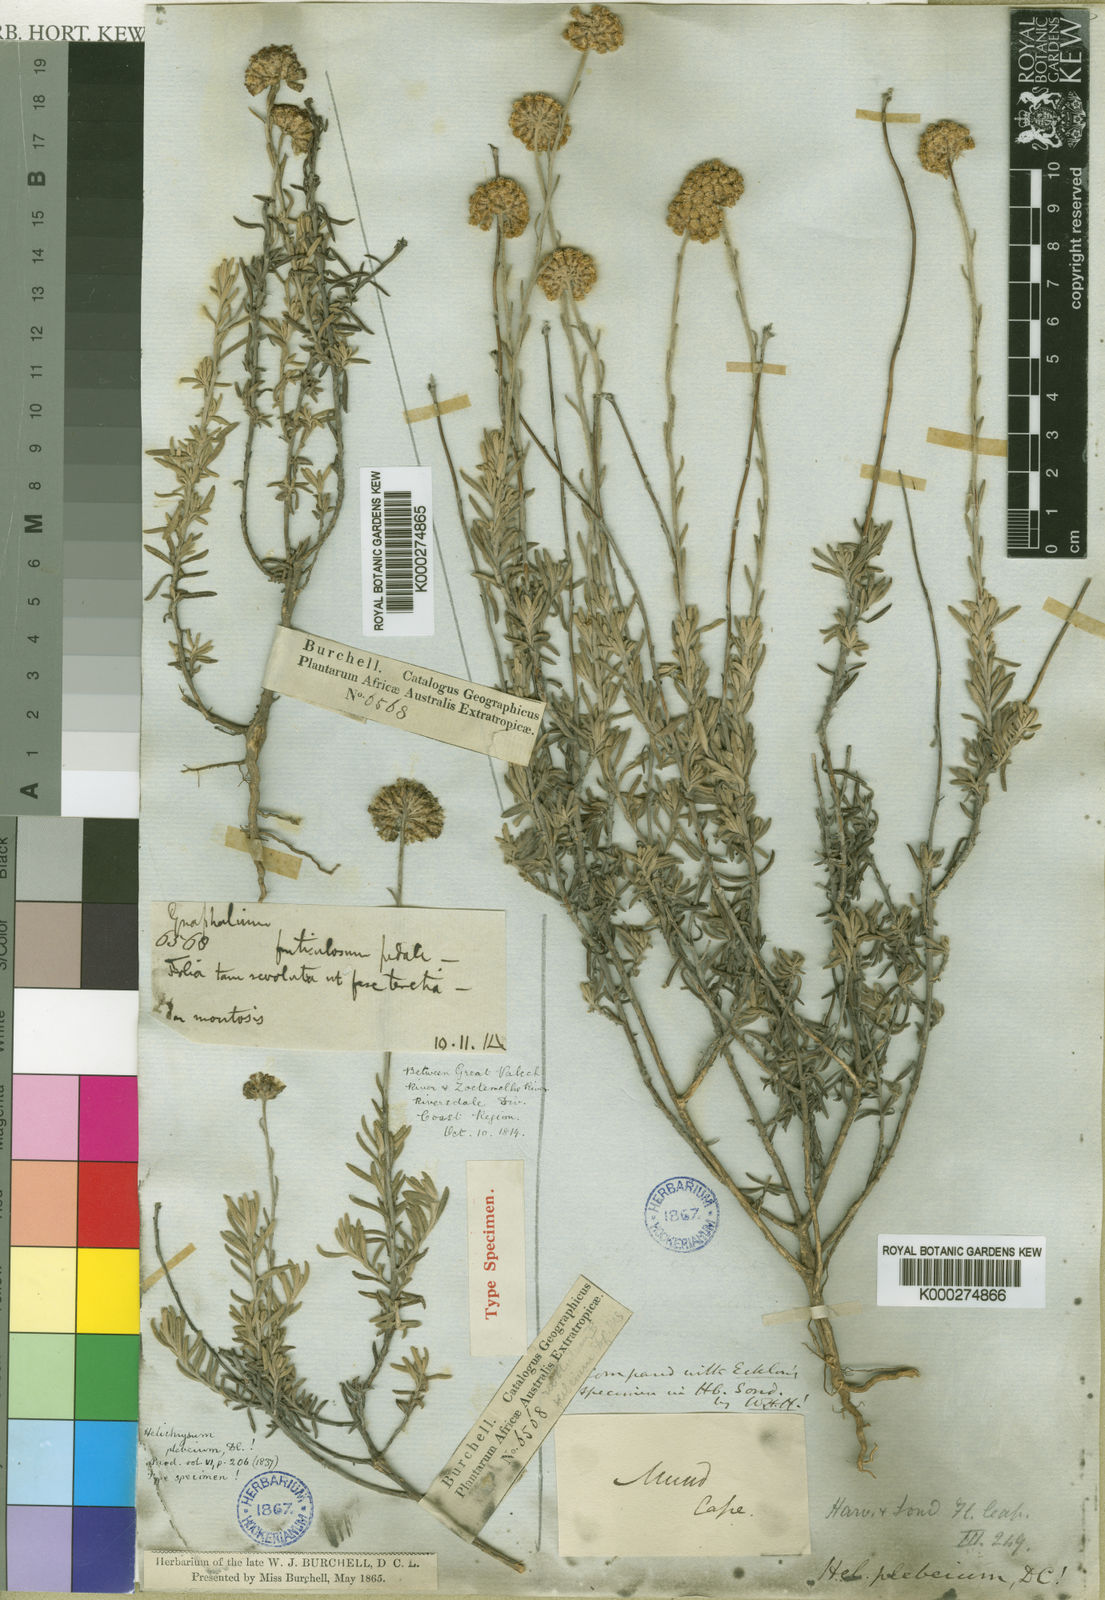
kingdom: Plantae
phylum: Tracheophyta
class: Magnoliopsida
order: Asterales
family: Asteraceae
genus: Helichrysum
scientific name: Helichrysum plebeium
